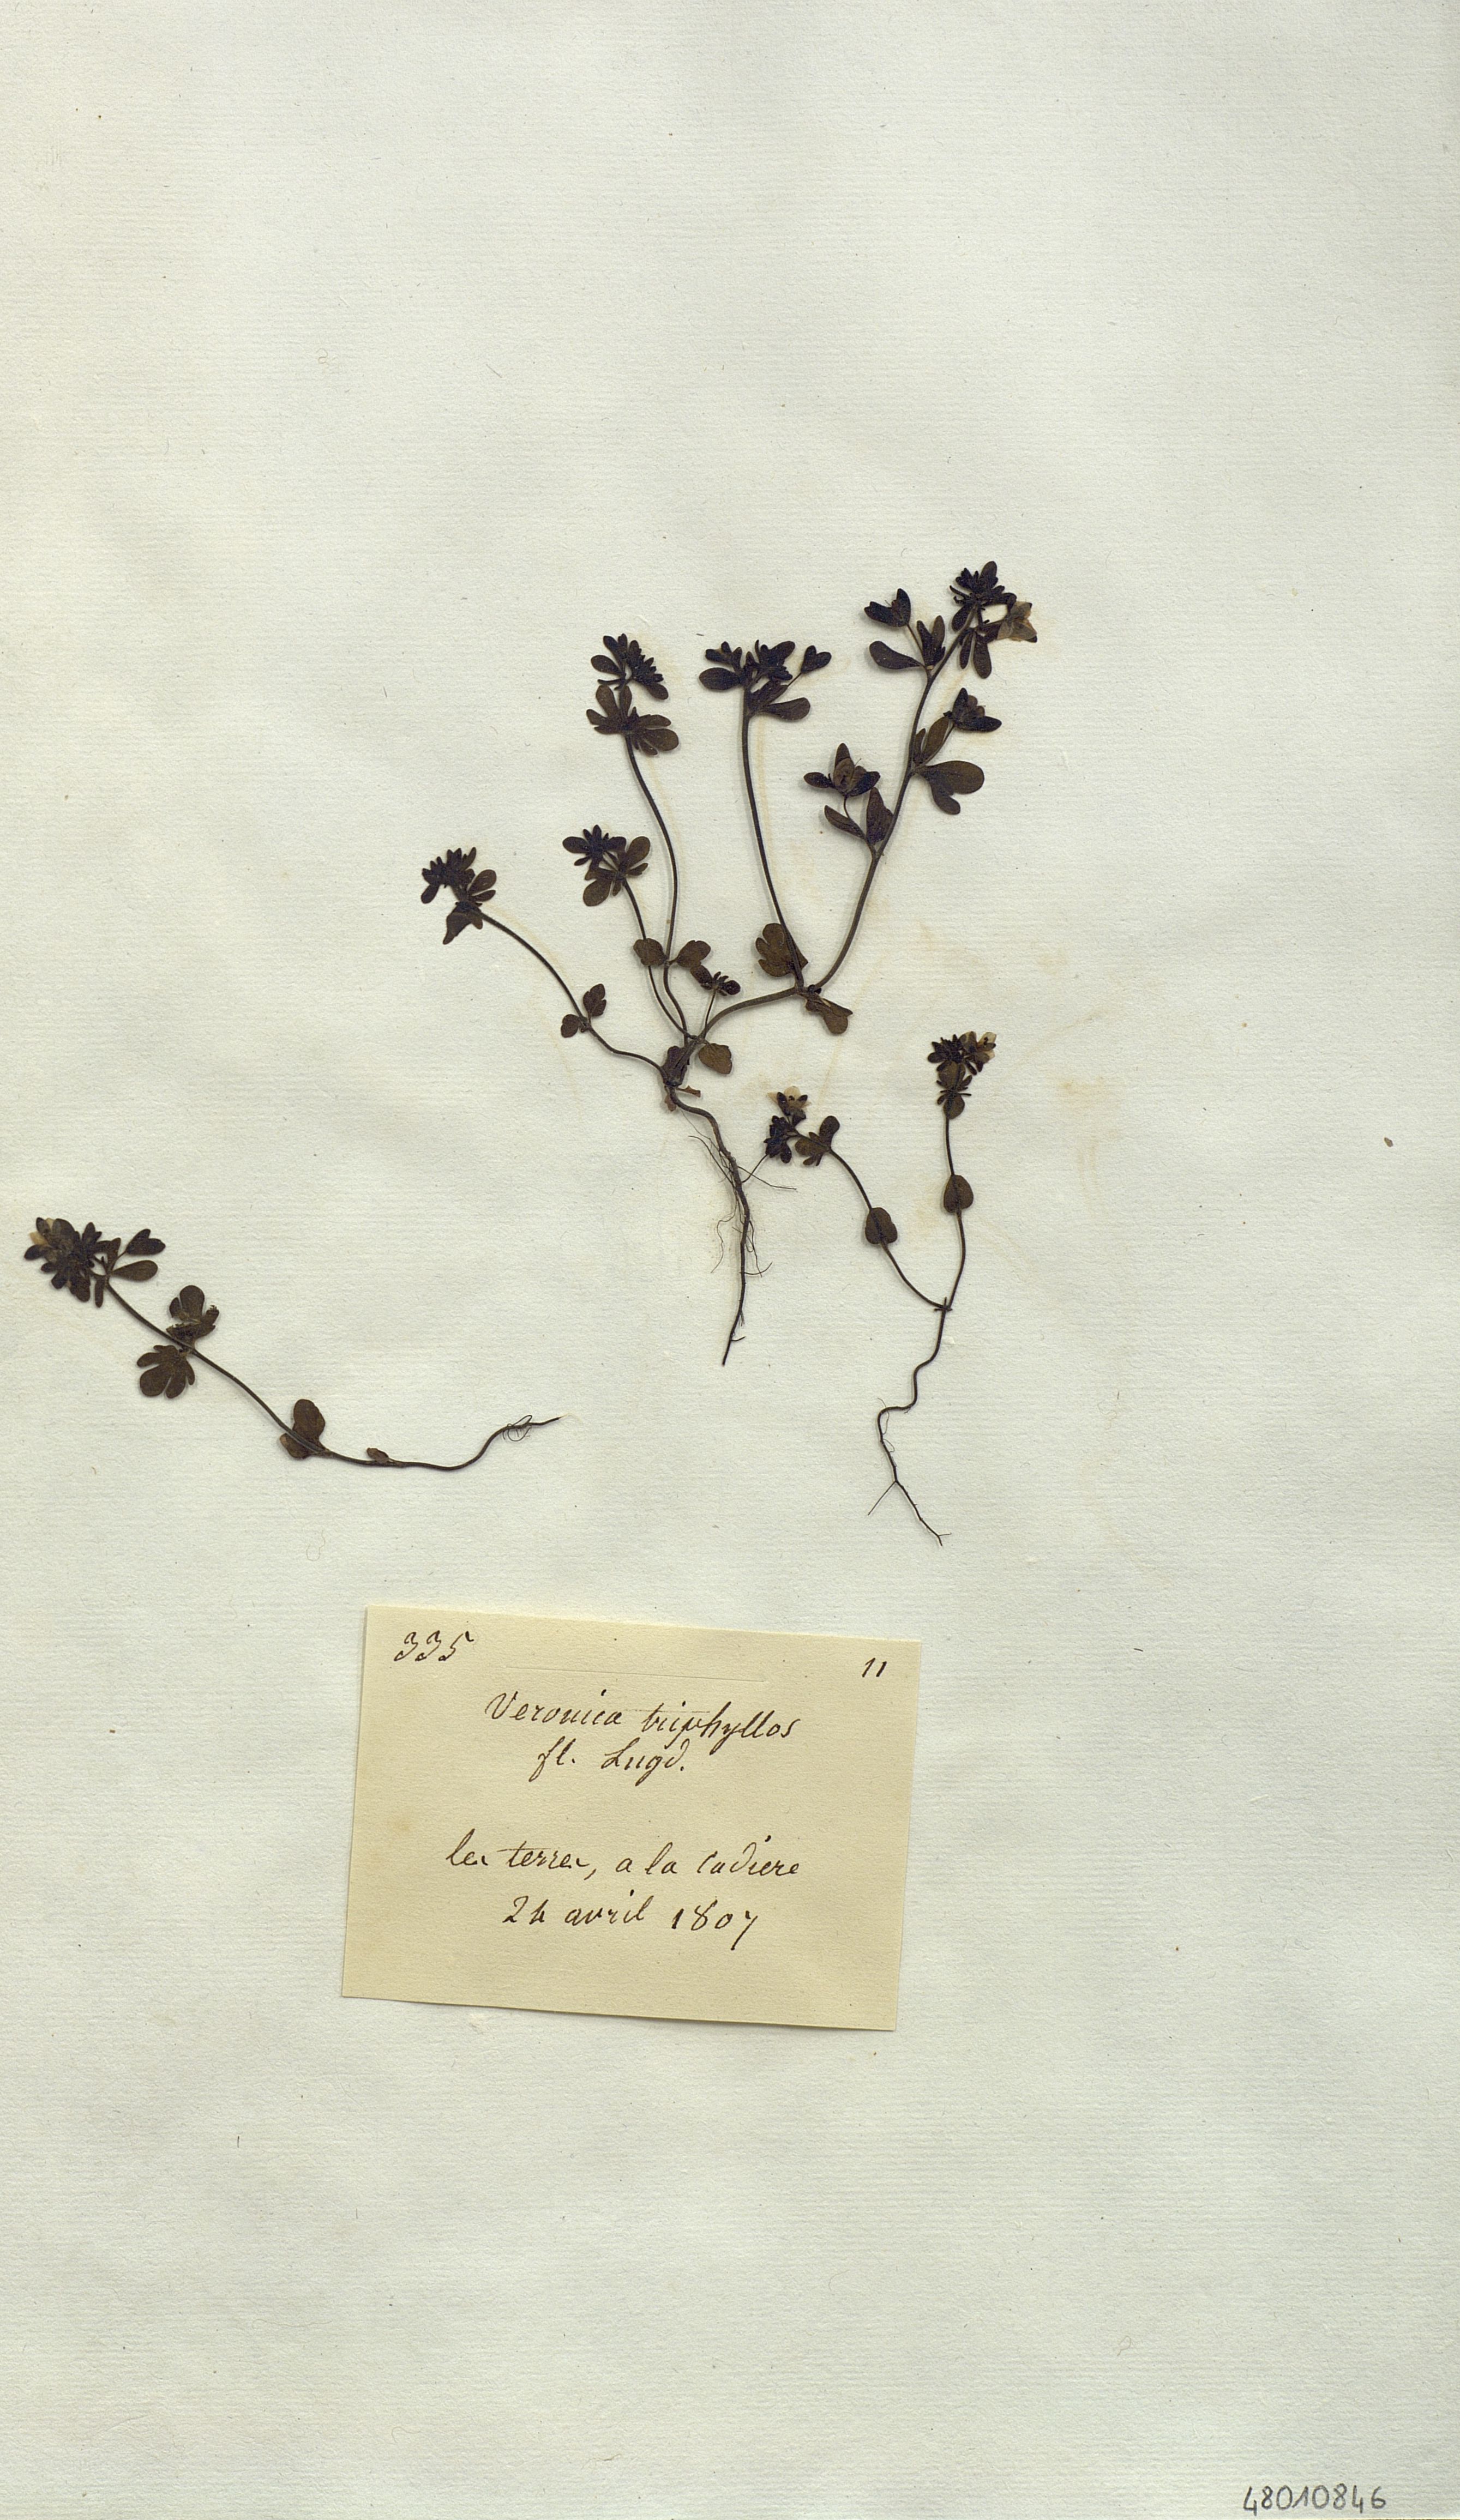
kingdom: Plantae
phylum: Tracheophyta
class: Magnoliopsida
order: Lamiales
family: Plantaginaceae
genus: Veronica
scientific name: Veronica triphyllos
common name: Fingered speedwell
